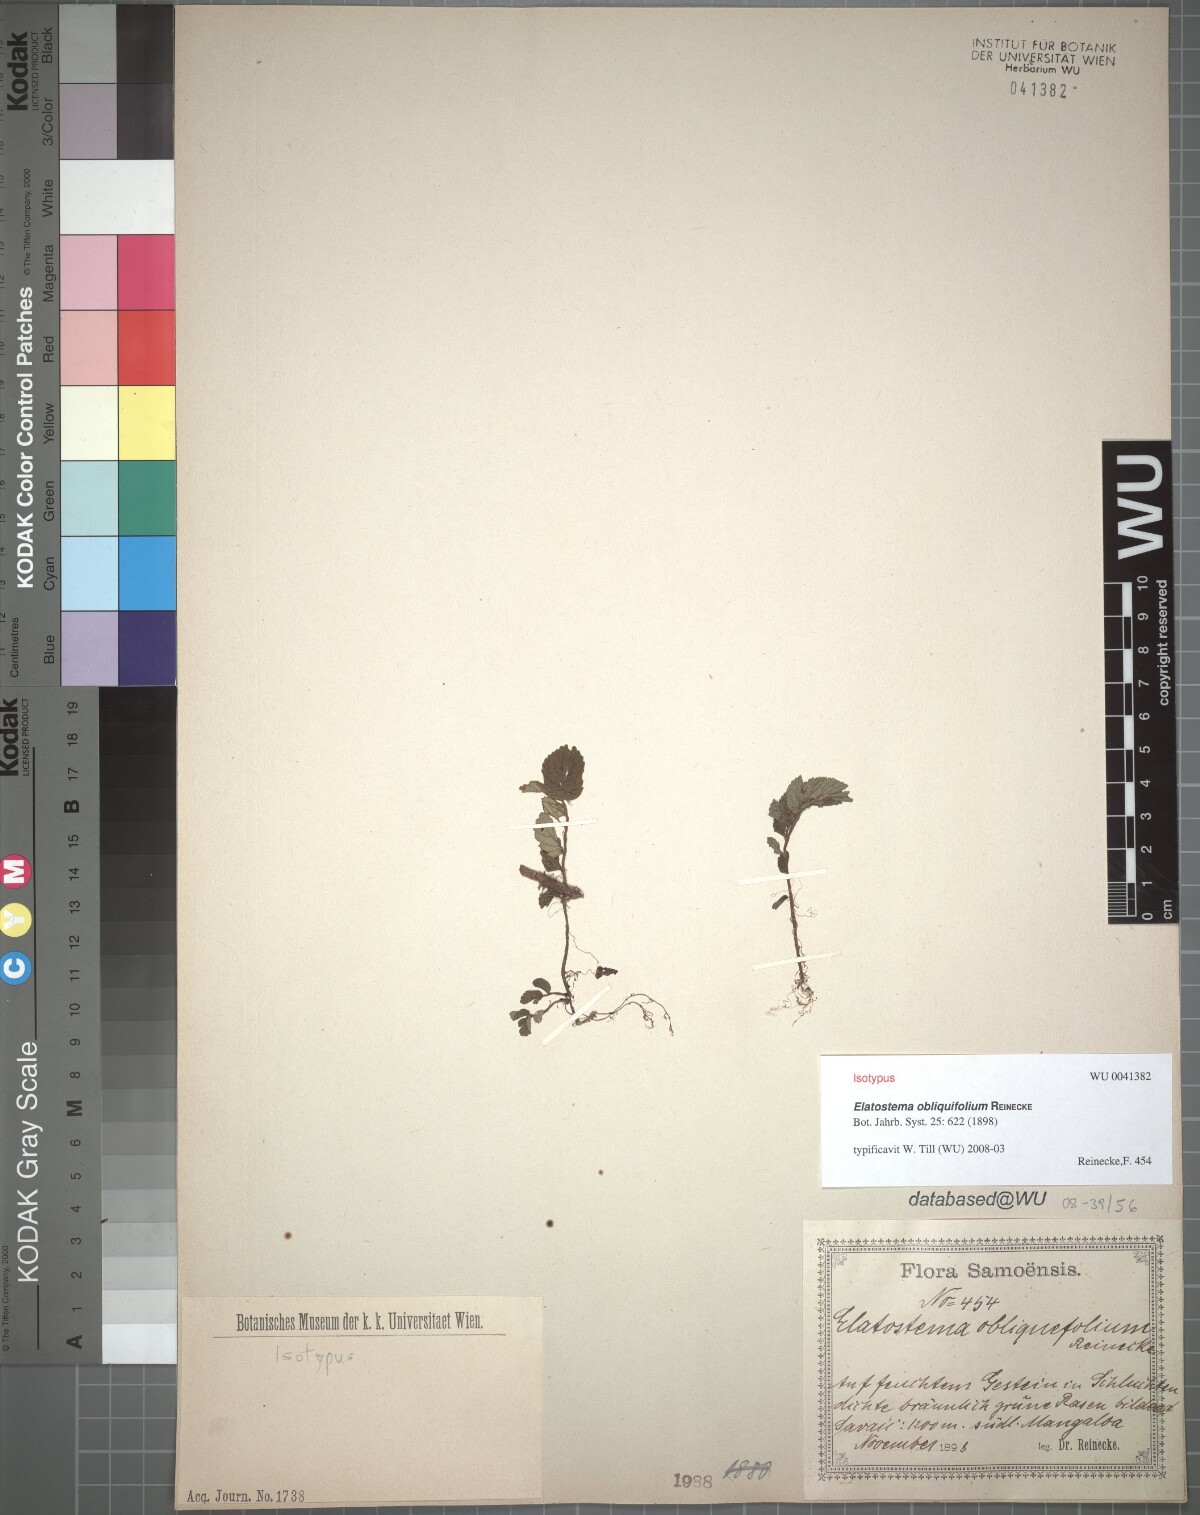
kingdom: Plantae
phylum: Tracheophyta
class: Magnoliopsida
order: Rosales
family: Urticaceae
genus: Elatostema
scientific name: Elatostema obliquifolium
